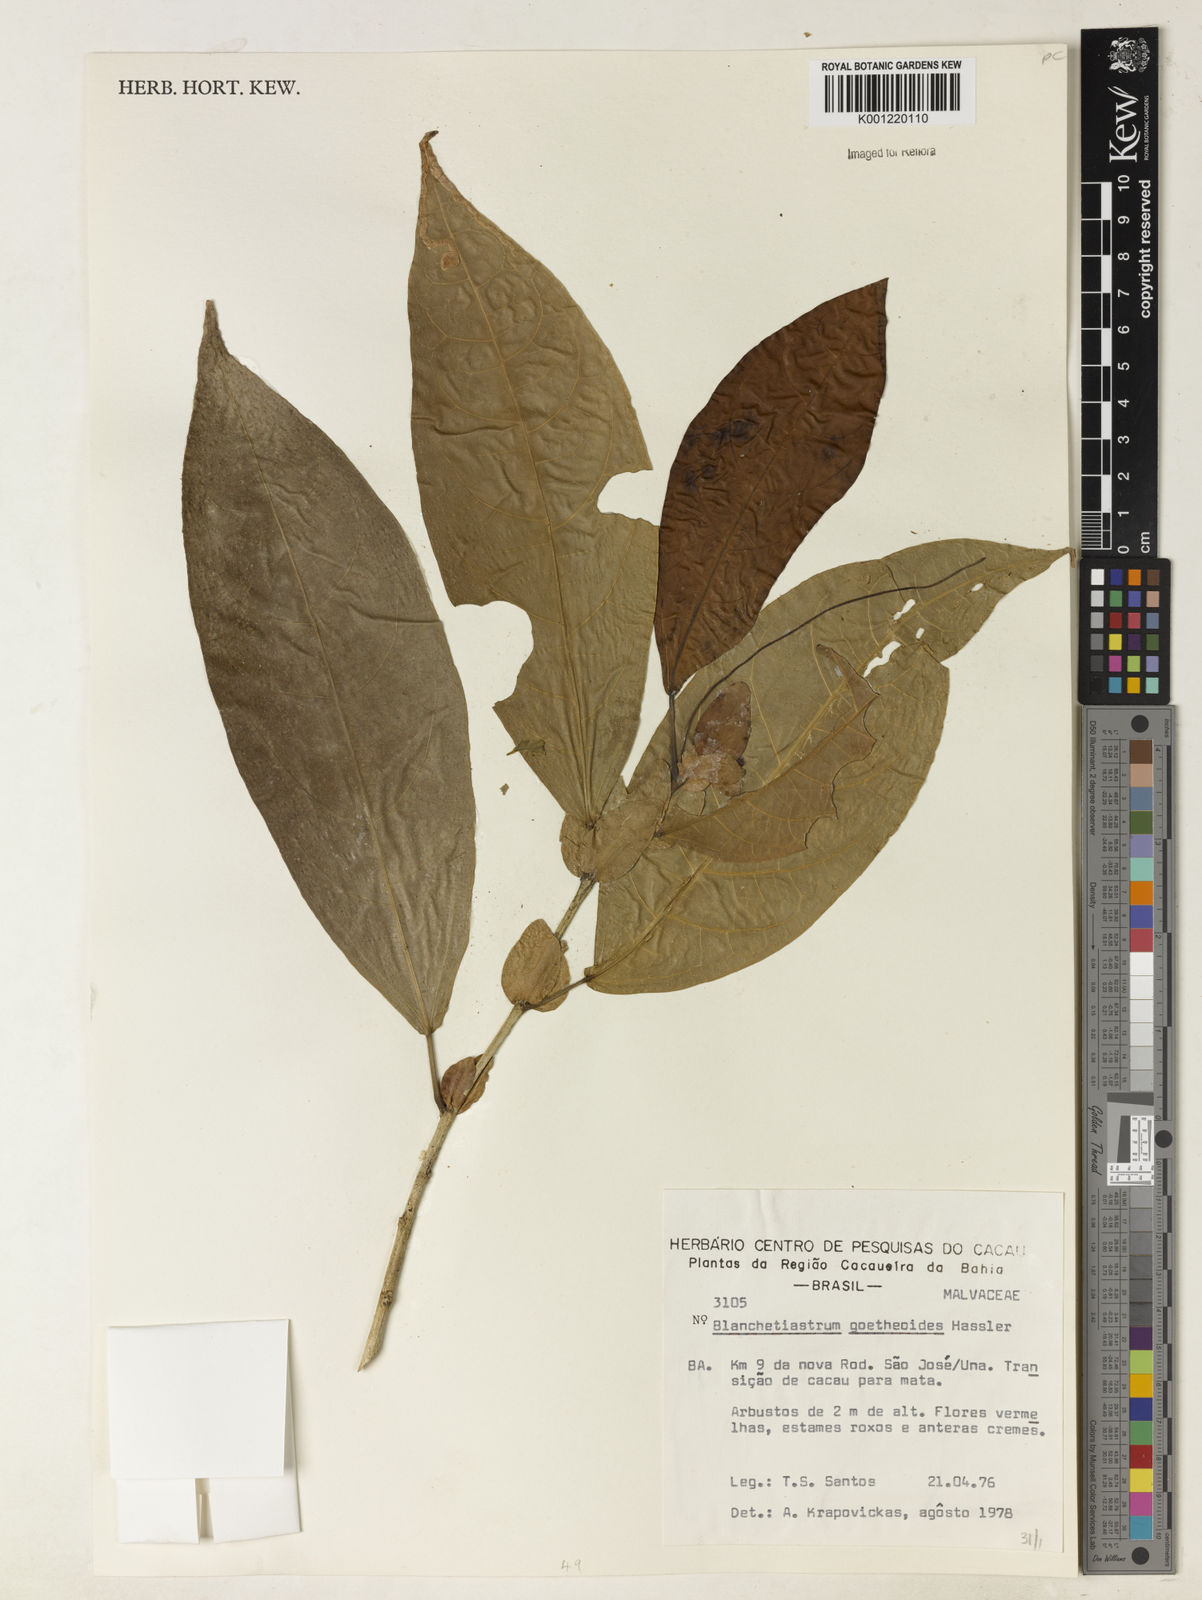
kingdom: Plantae
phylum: Tracheophyta
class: Magnoliopsida
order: Malvales
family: Malvaceae
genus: Pavonia
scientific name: Pavonia goetheoides
